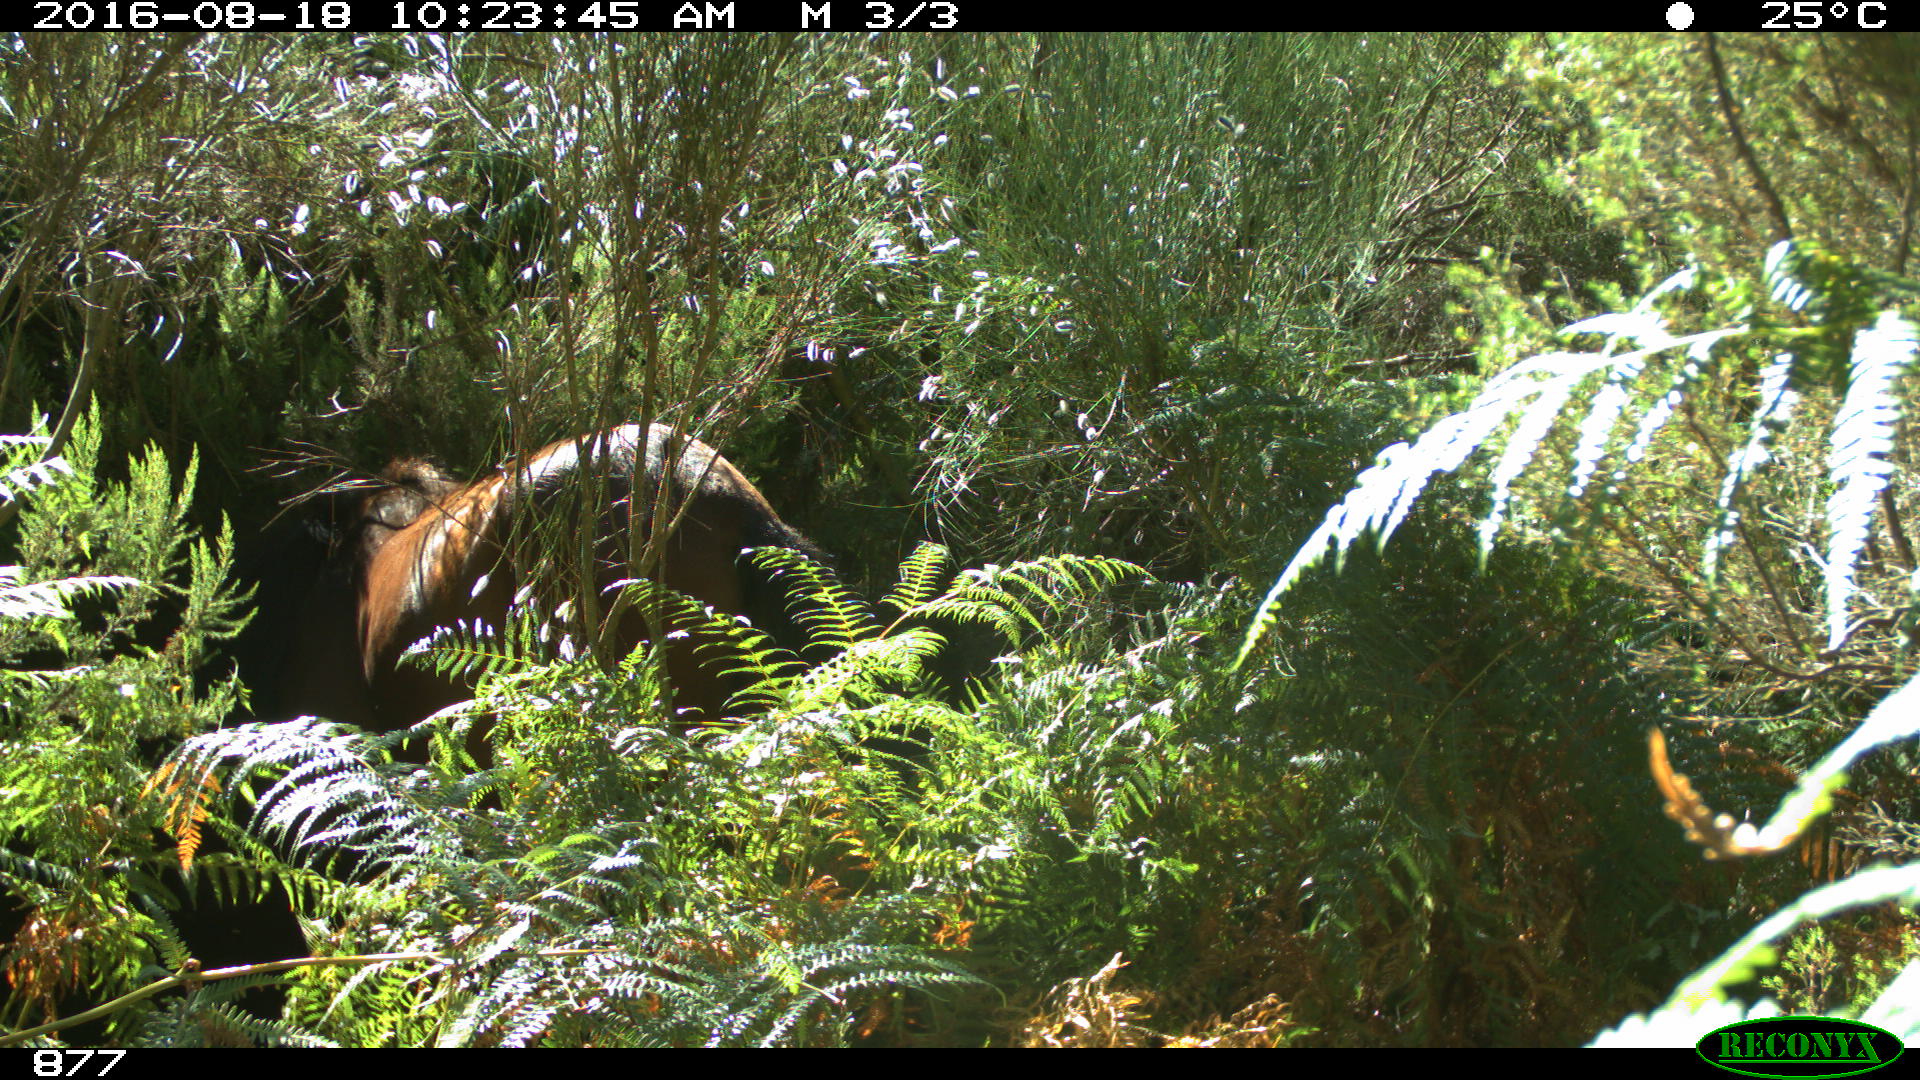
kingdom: Animalia
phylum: Chordata
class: Mammalia
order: Perissodactyla
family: Equidae
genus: Equus
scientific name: Equus caballus
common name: Horse
